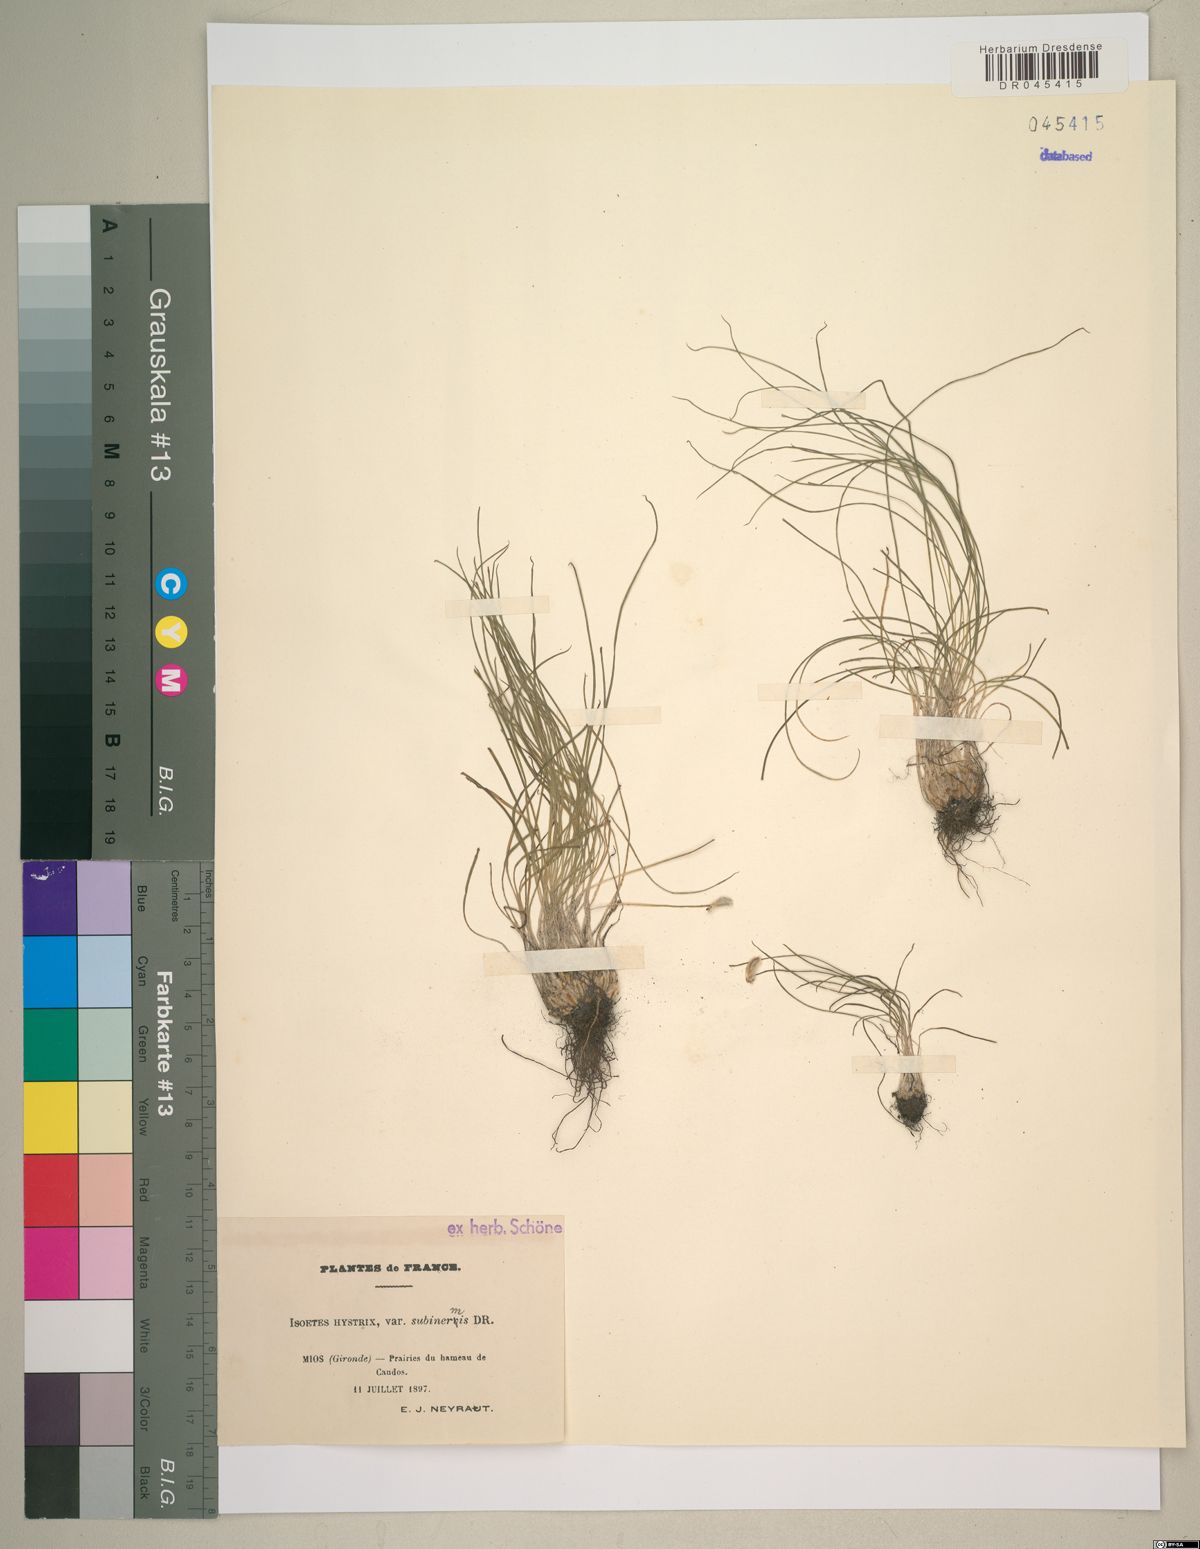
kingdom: Plantae
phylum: Tracheophyta
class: Lycopodiopsida
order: Isoetales
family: Isoetaceae
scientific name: Isoetaceae
